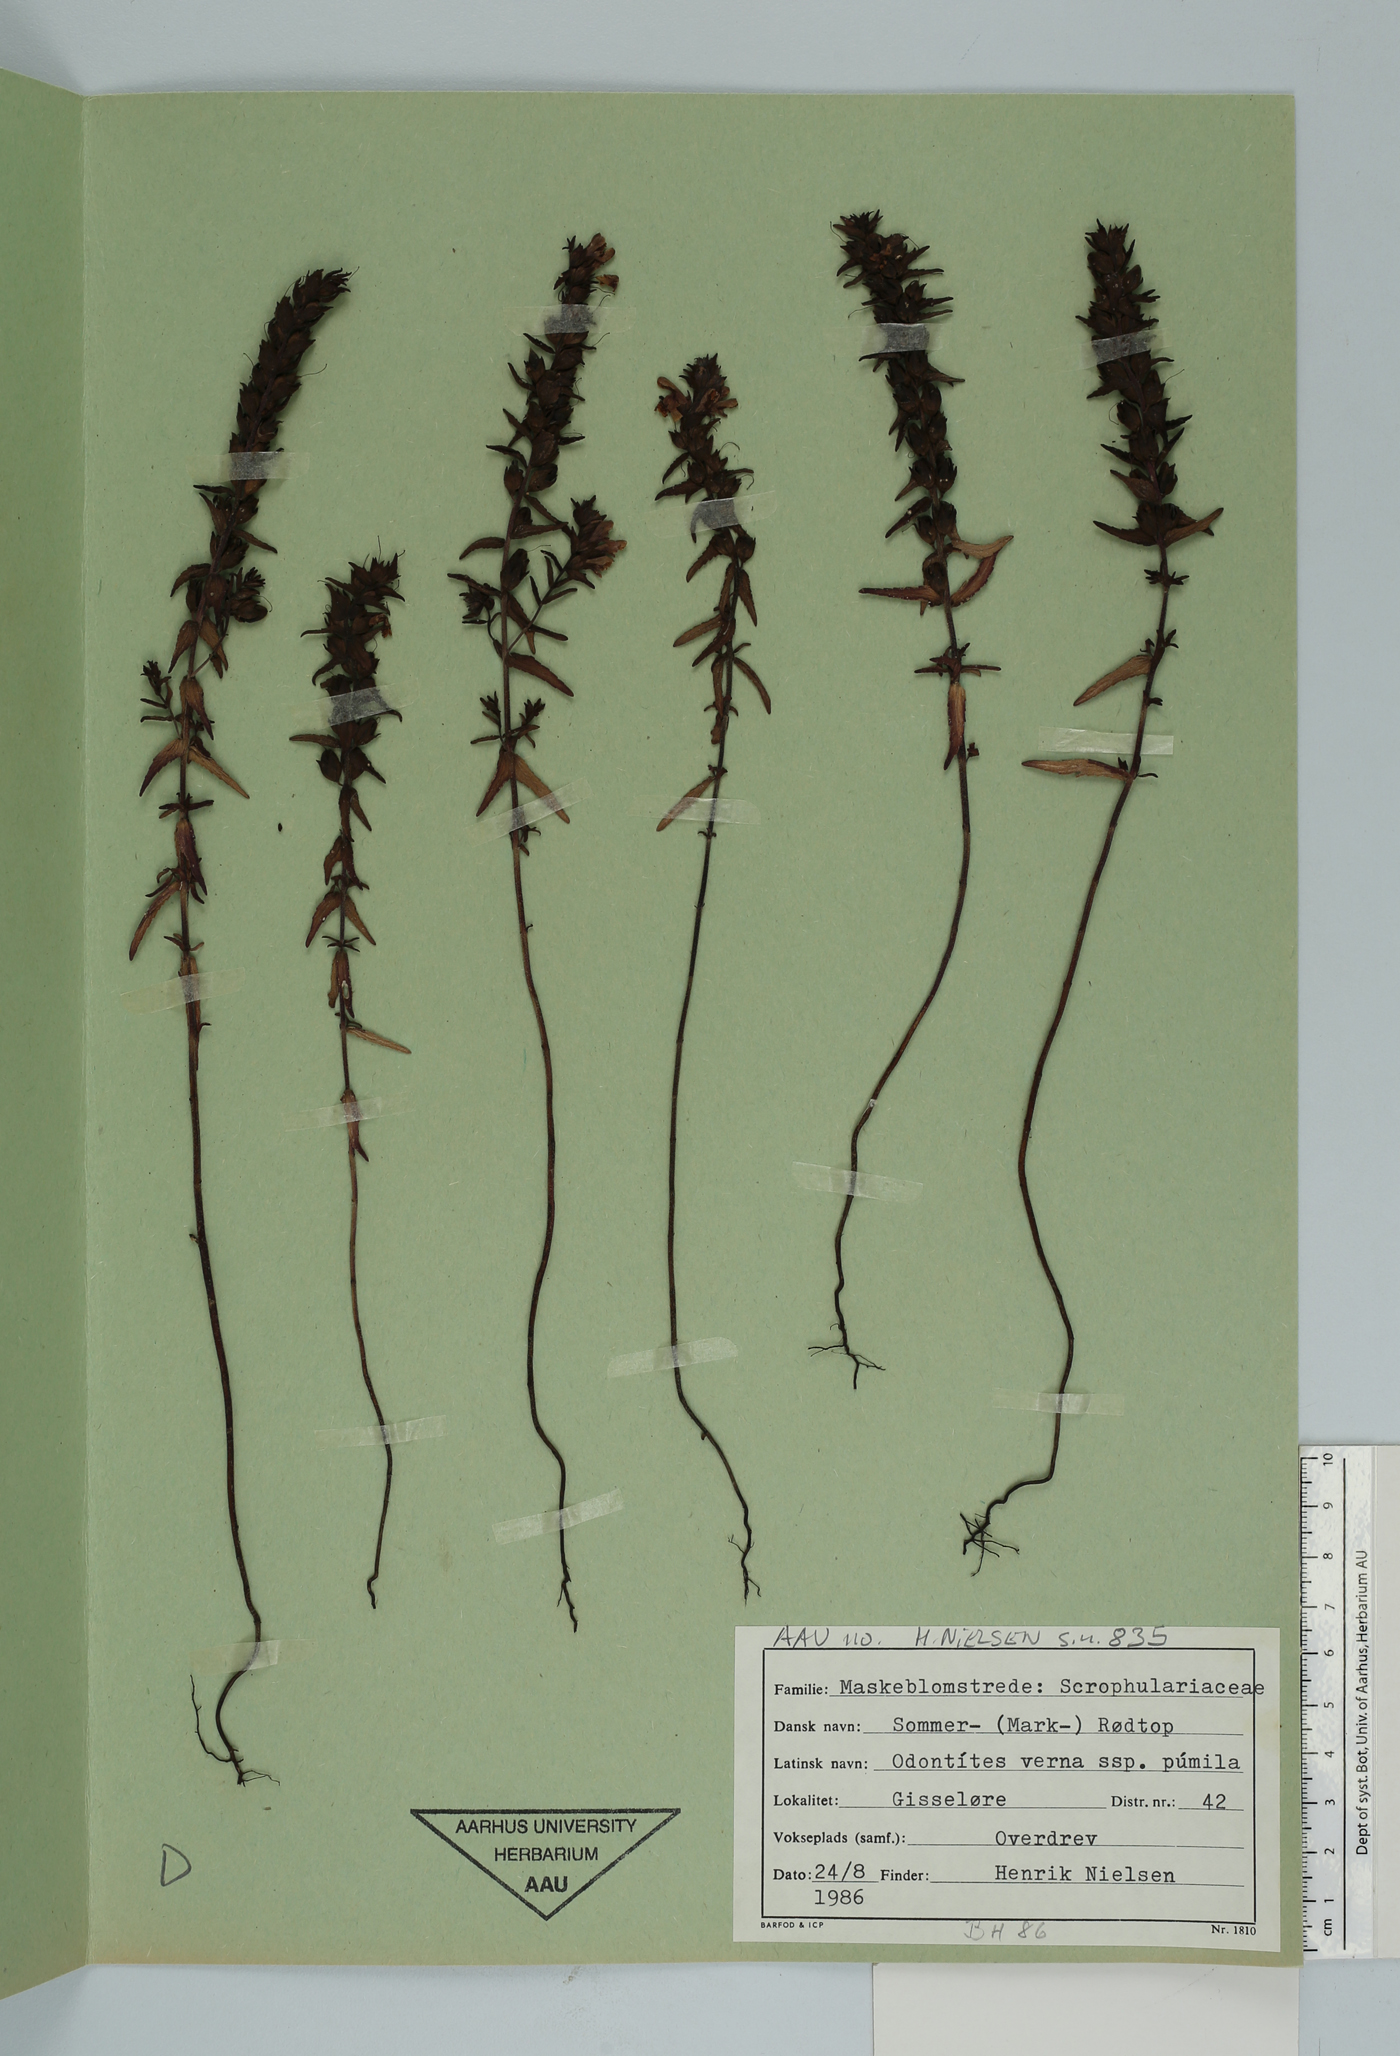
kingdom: Plantae
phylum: Tracheophyta
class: Magnoliopsida
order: Lamiales
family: Orobanchaceae
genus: Odontites
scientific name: Odontites vernus
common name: Red bartsia
